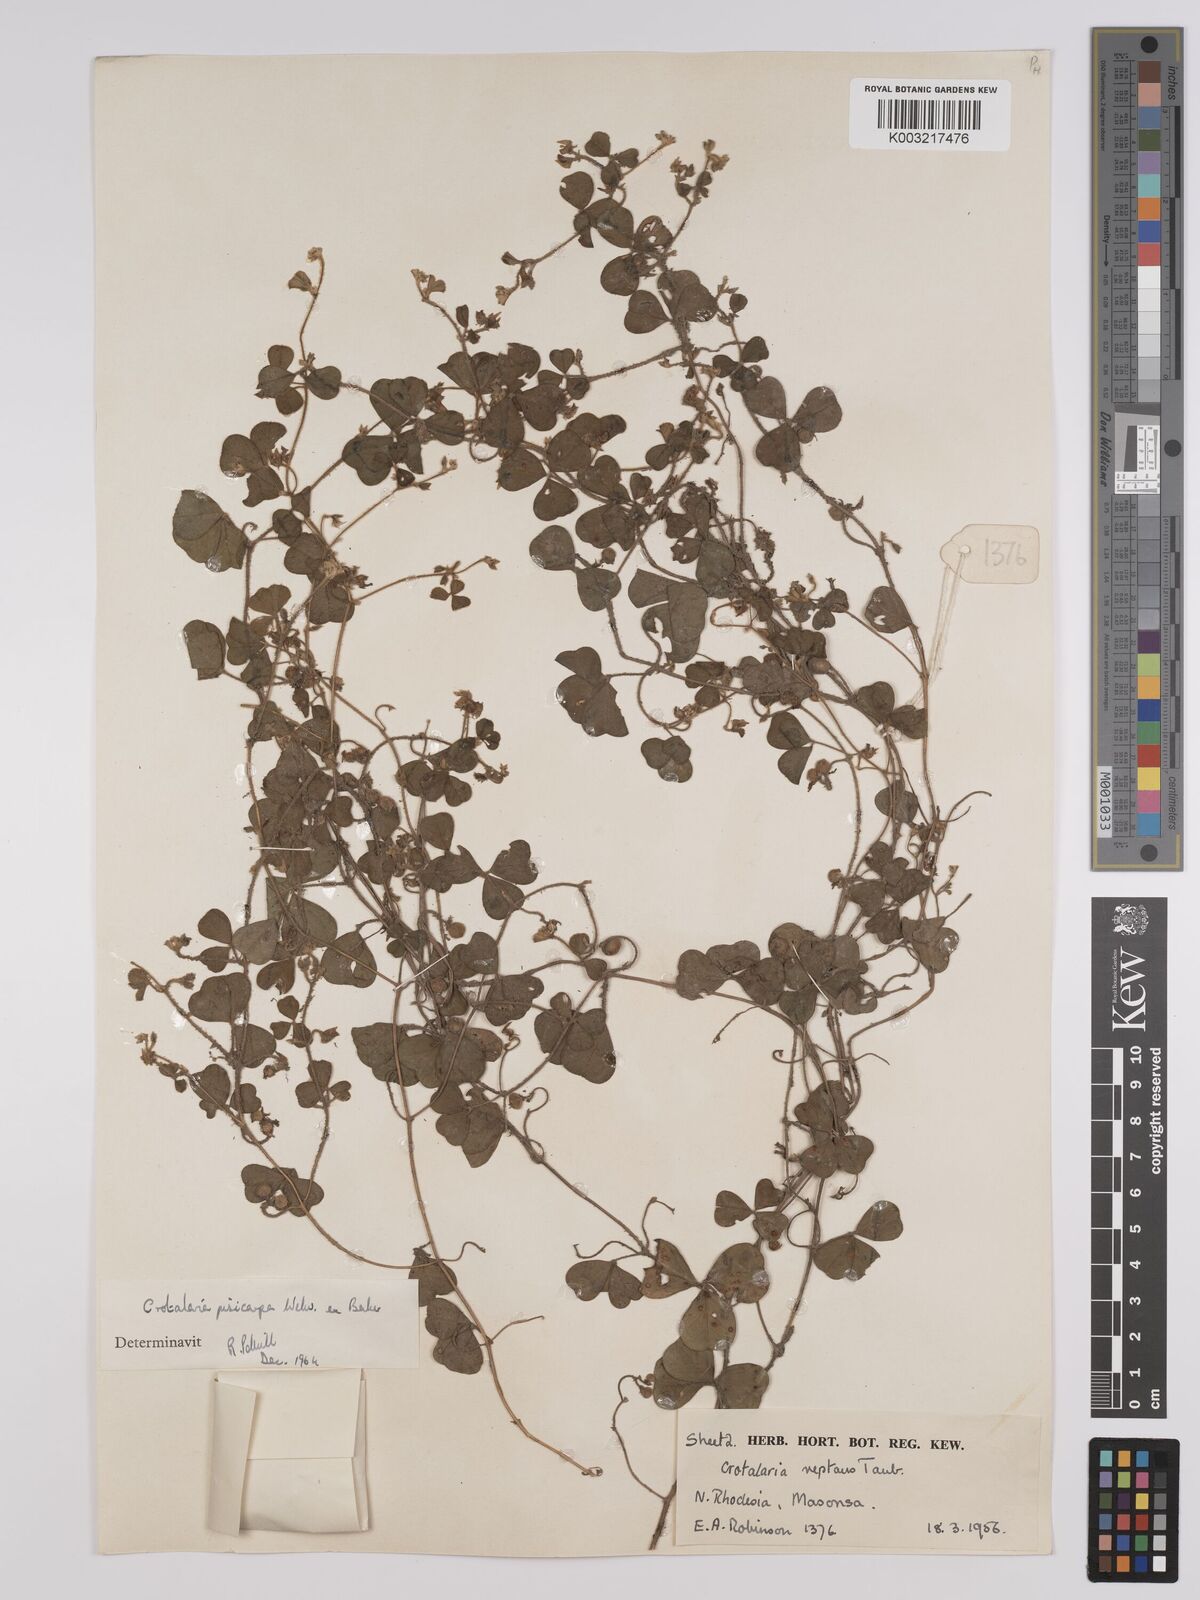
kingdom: Plantae
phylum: Tracheophyta
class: Magnoliopsida
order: Fabales
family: Fabaceae
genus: Crotalaria
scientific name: Crotalaria pisicarpa
